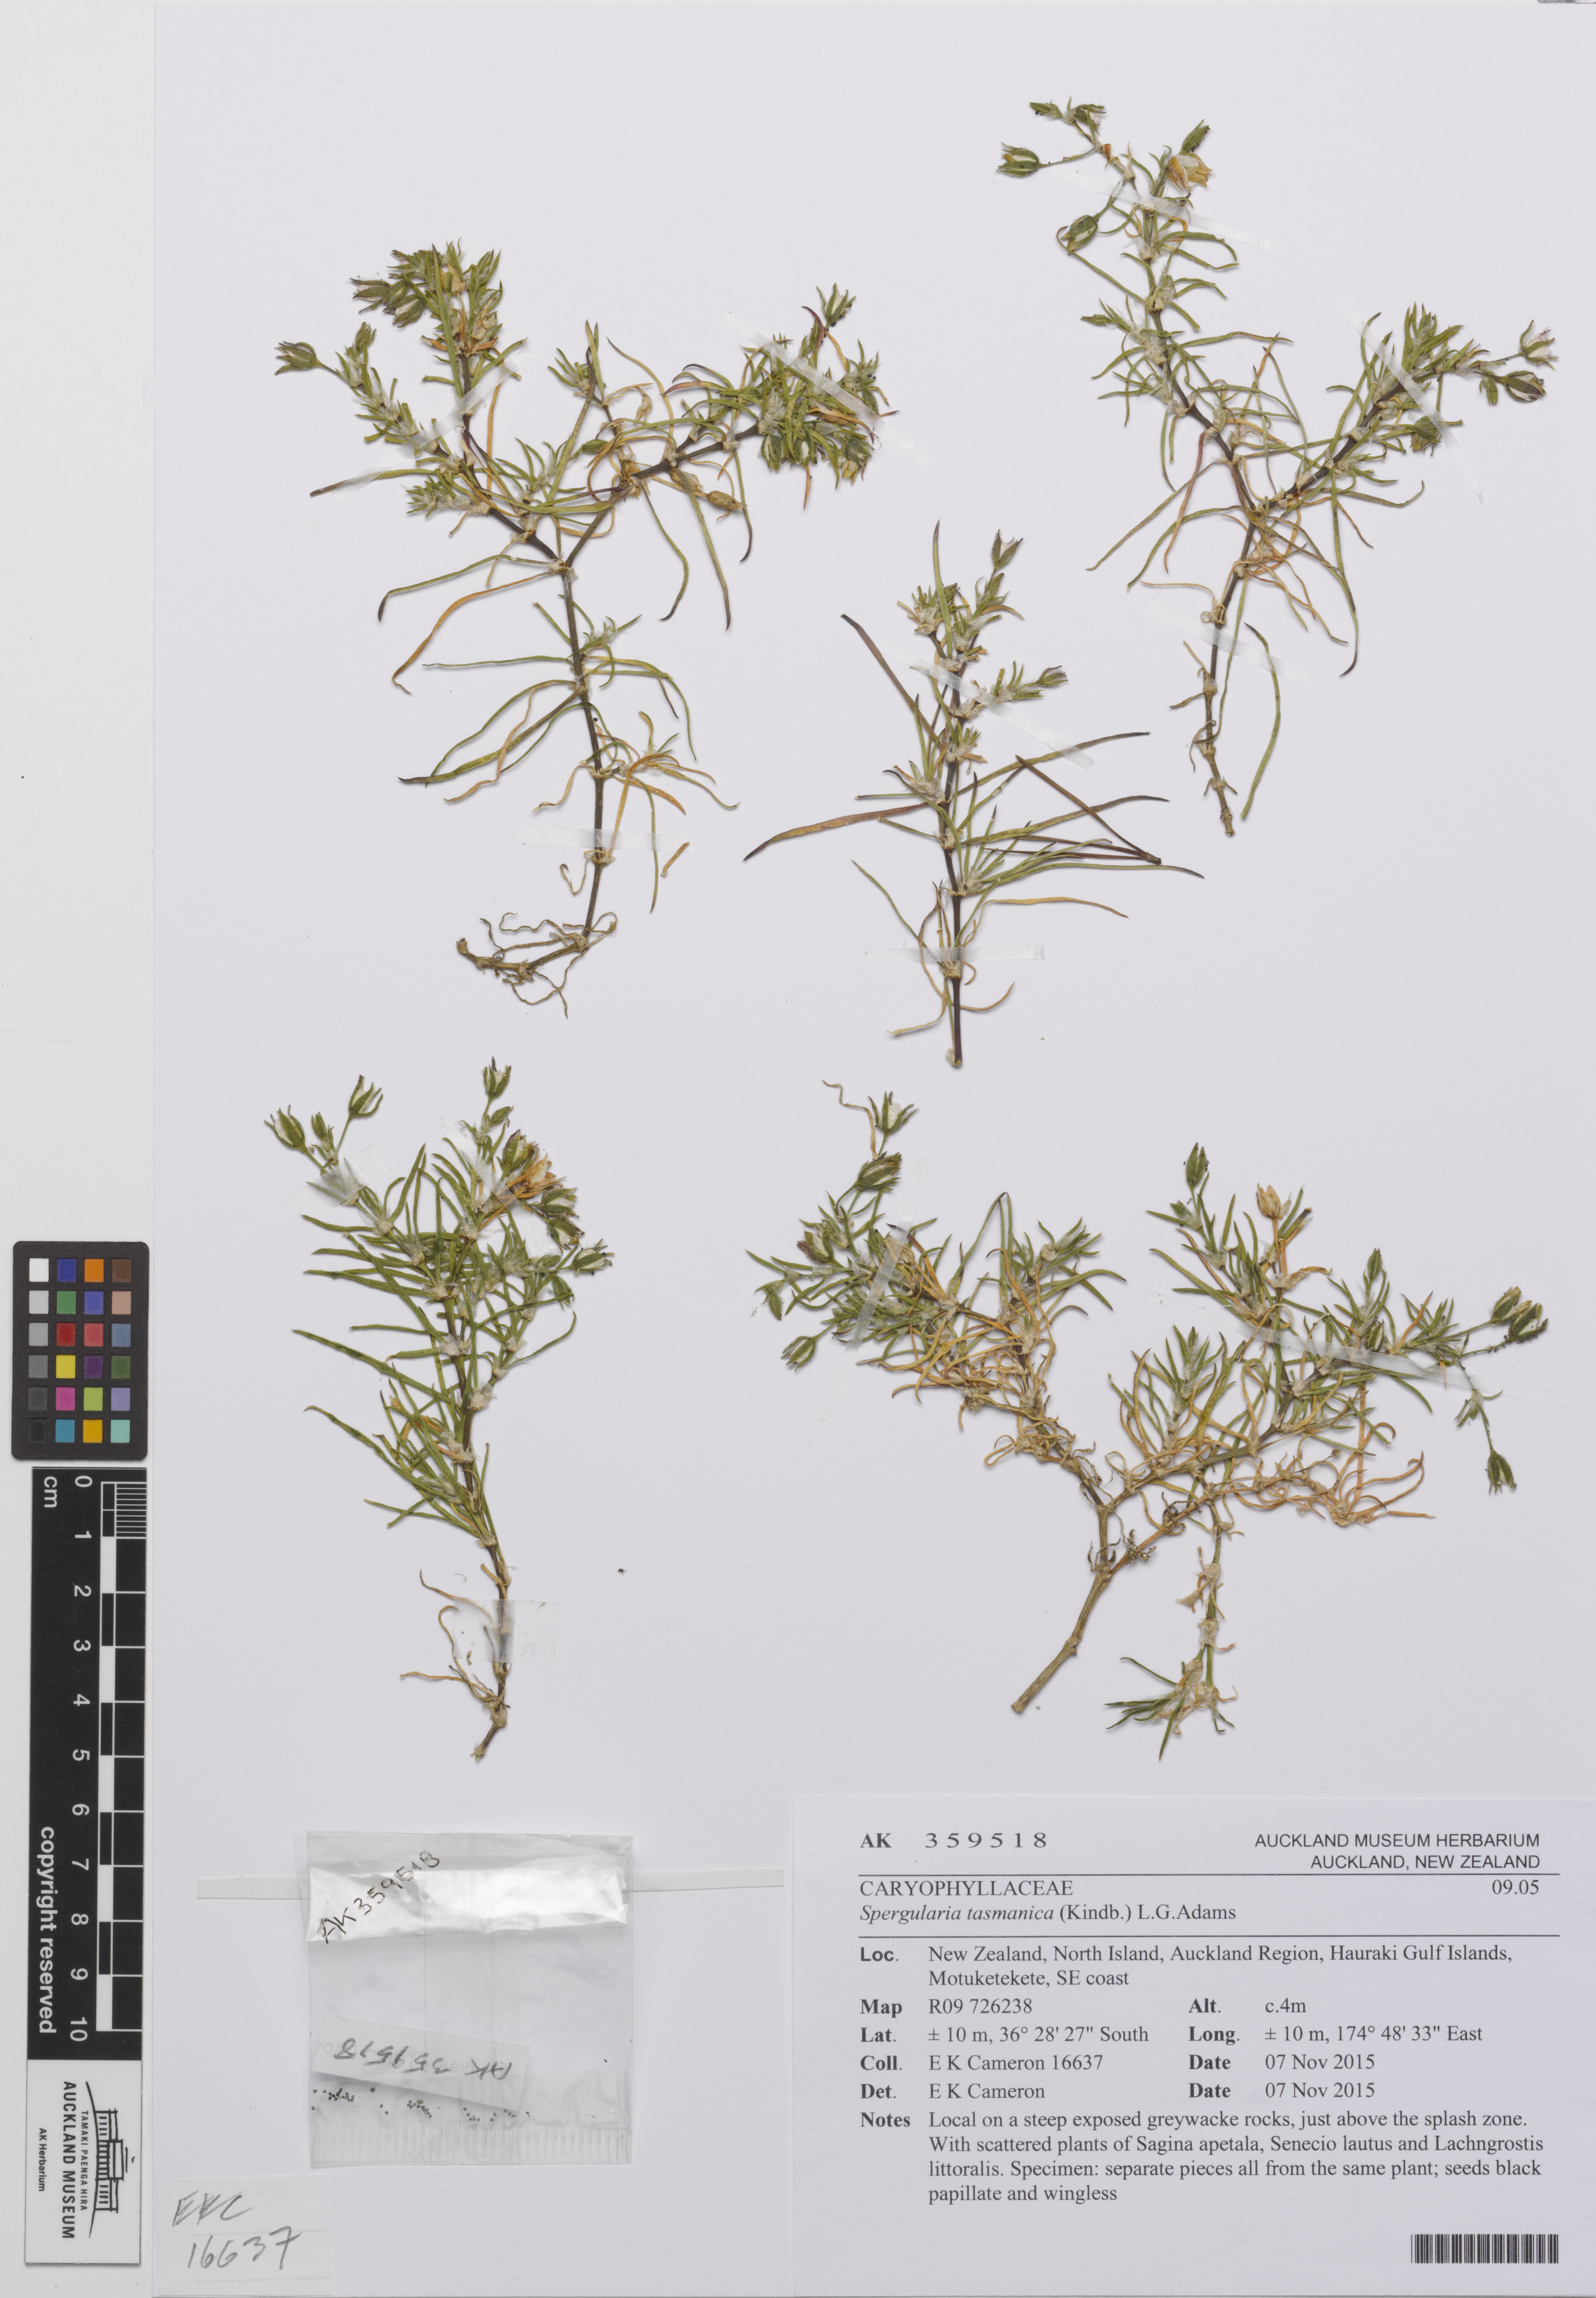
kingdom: Plantae
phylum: Tracheophyta
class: Magnoliopsida
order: Caryophyllales
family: Caryophyllaceae
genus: Spergularia
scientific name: Spergularia tasmanica
